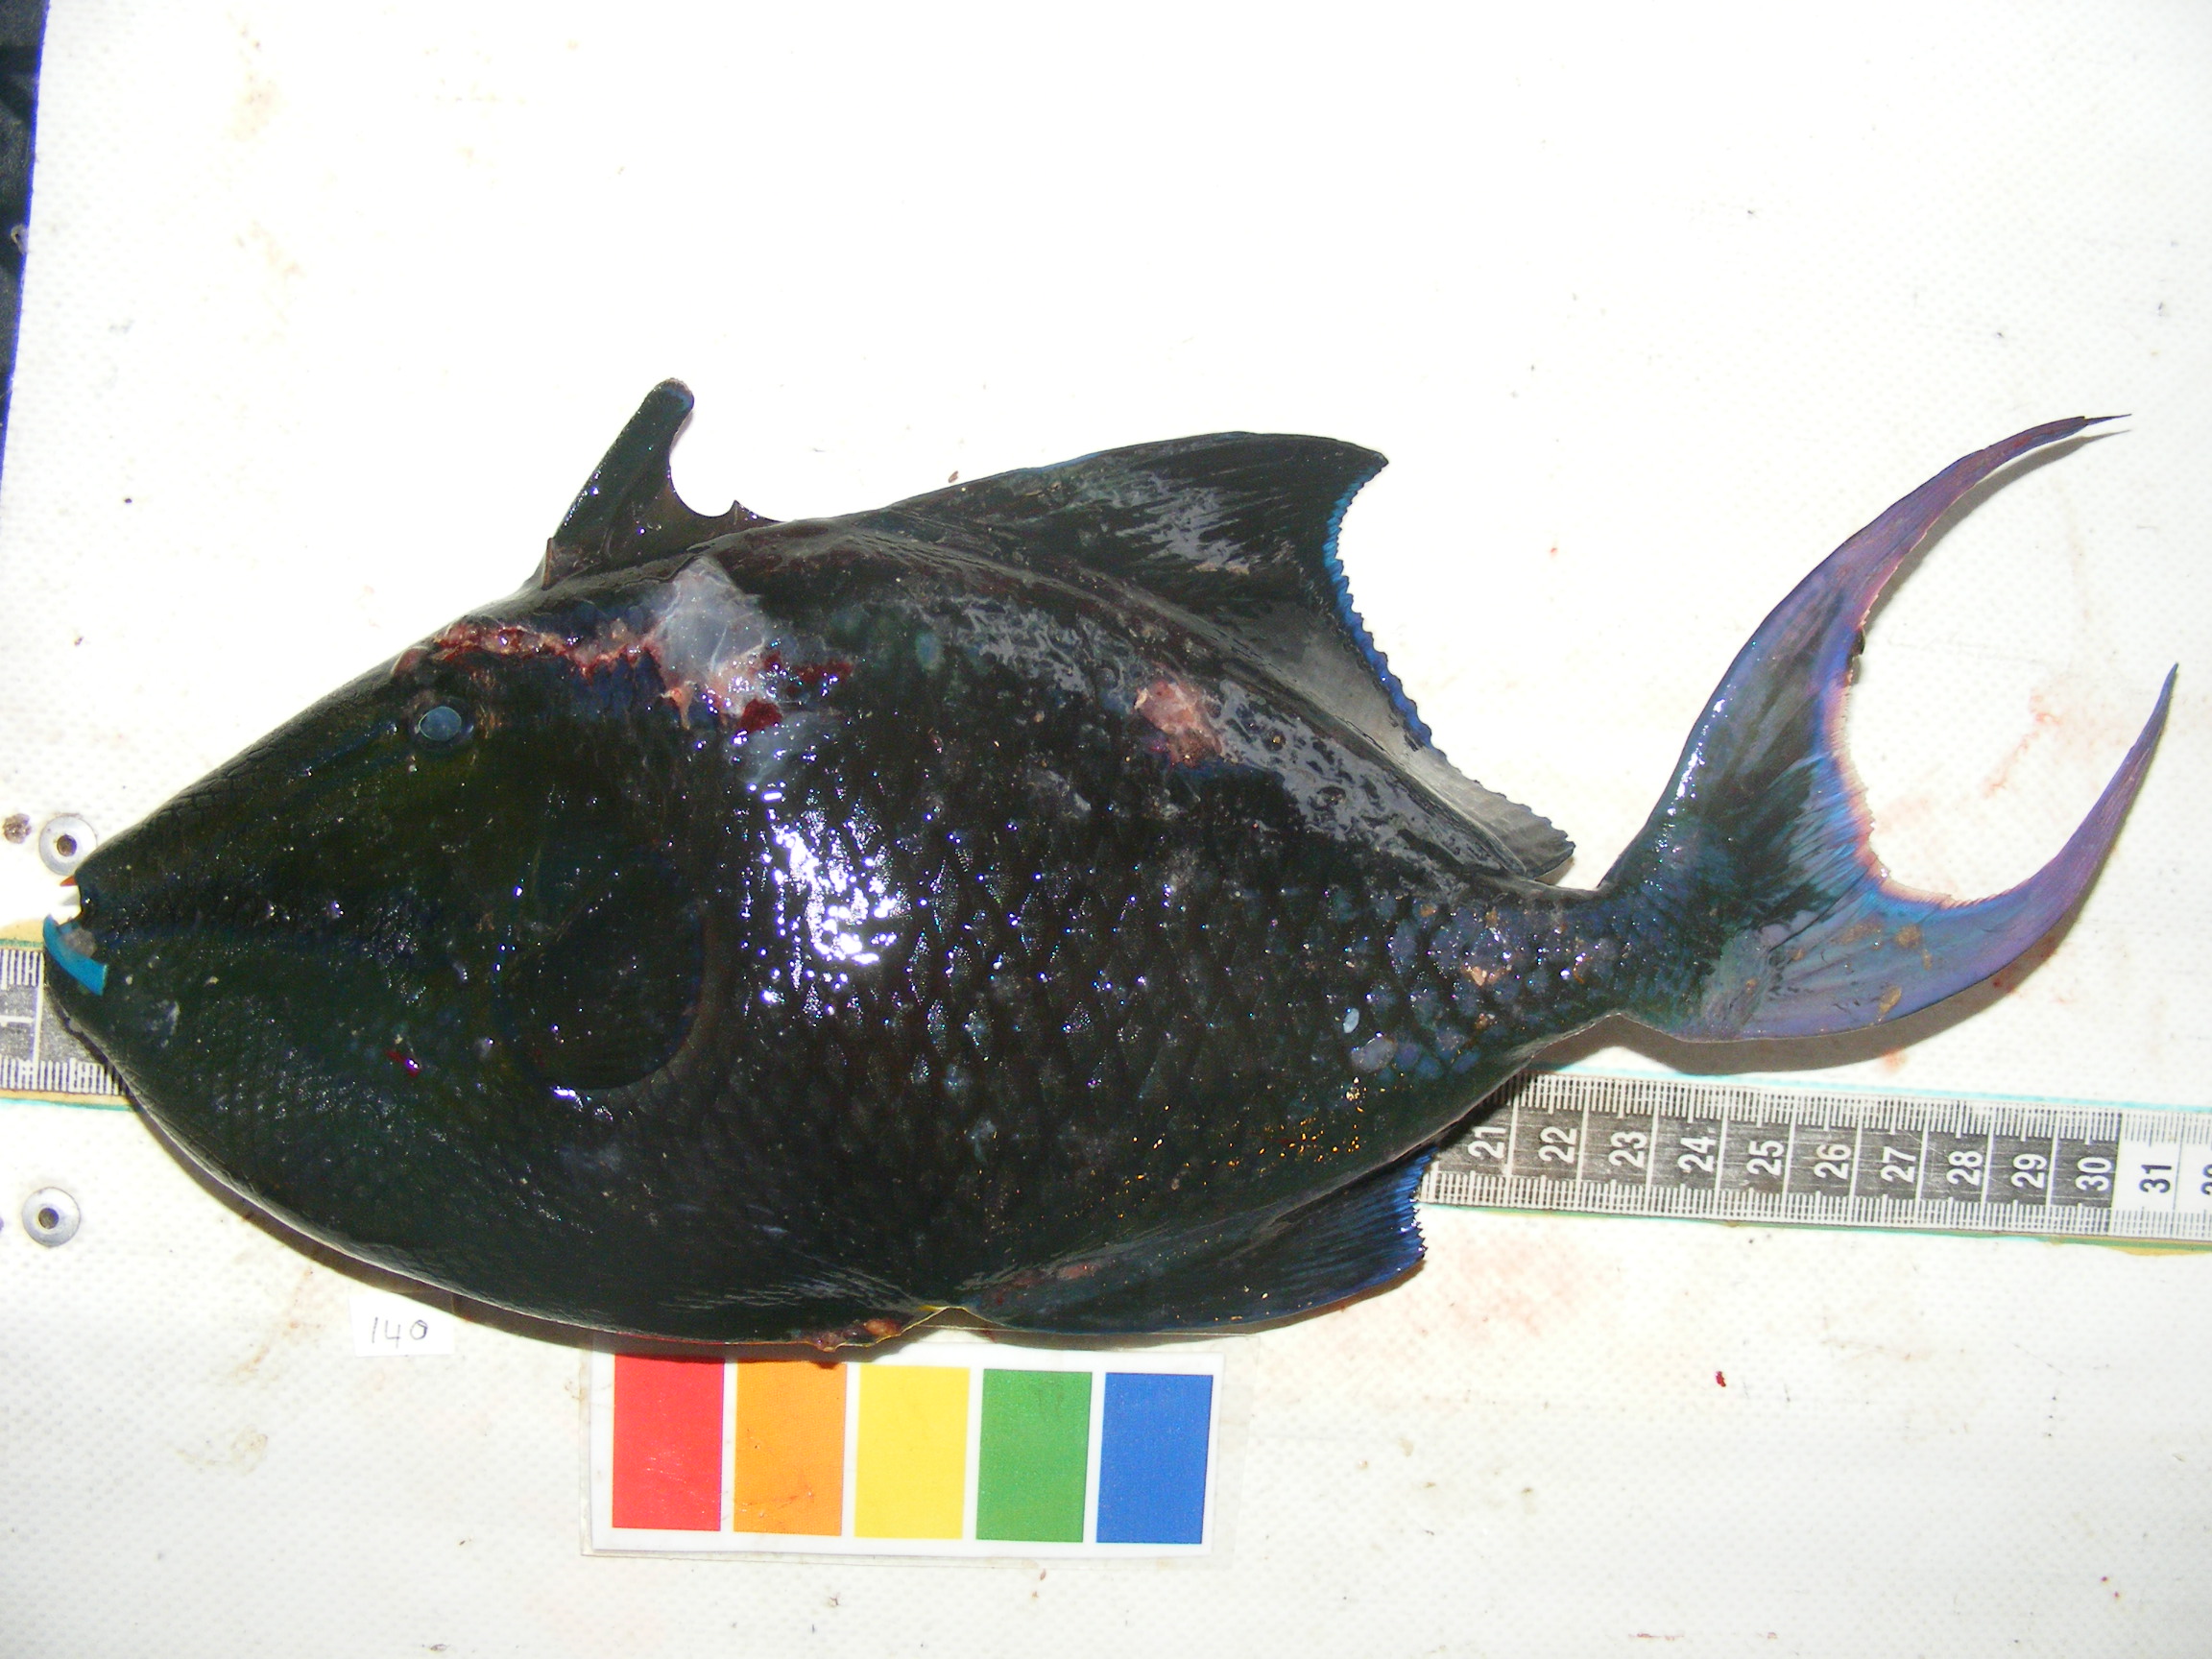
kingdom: Animalia
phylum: Chordata
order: Tetraodontiformes
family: Balistidae
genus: Odonus
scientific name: Odonus niger
